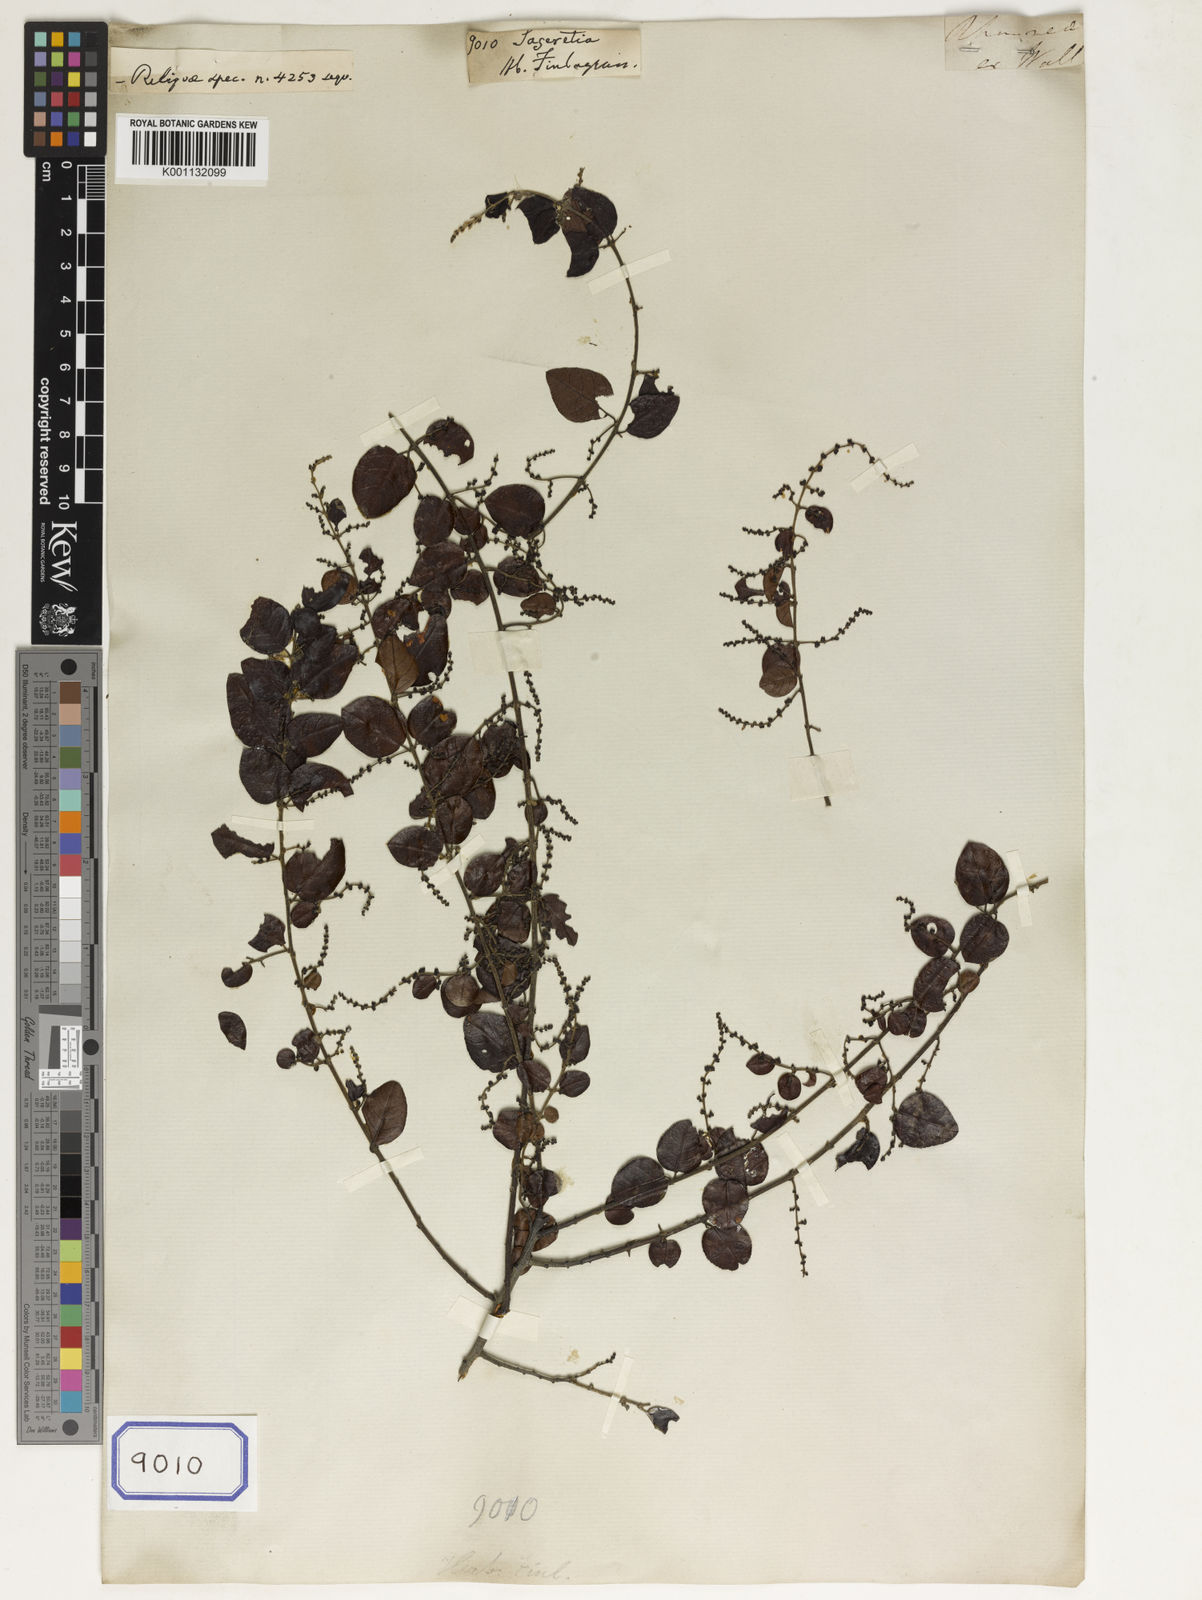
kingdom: Plantae
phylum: Tracheophyta
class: Magnoliopsida
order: Rosales
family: Rhamnaceae
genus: Sageretia
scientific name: Sageretia
